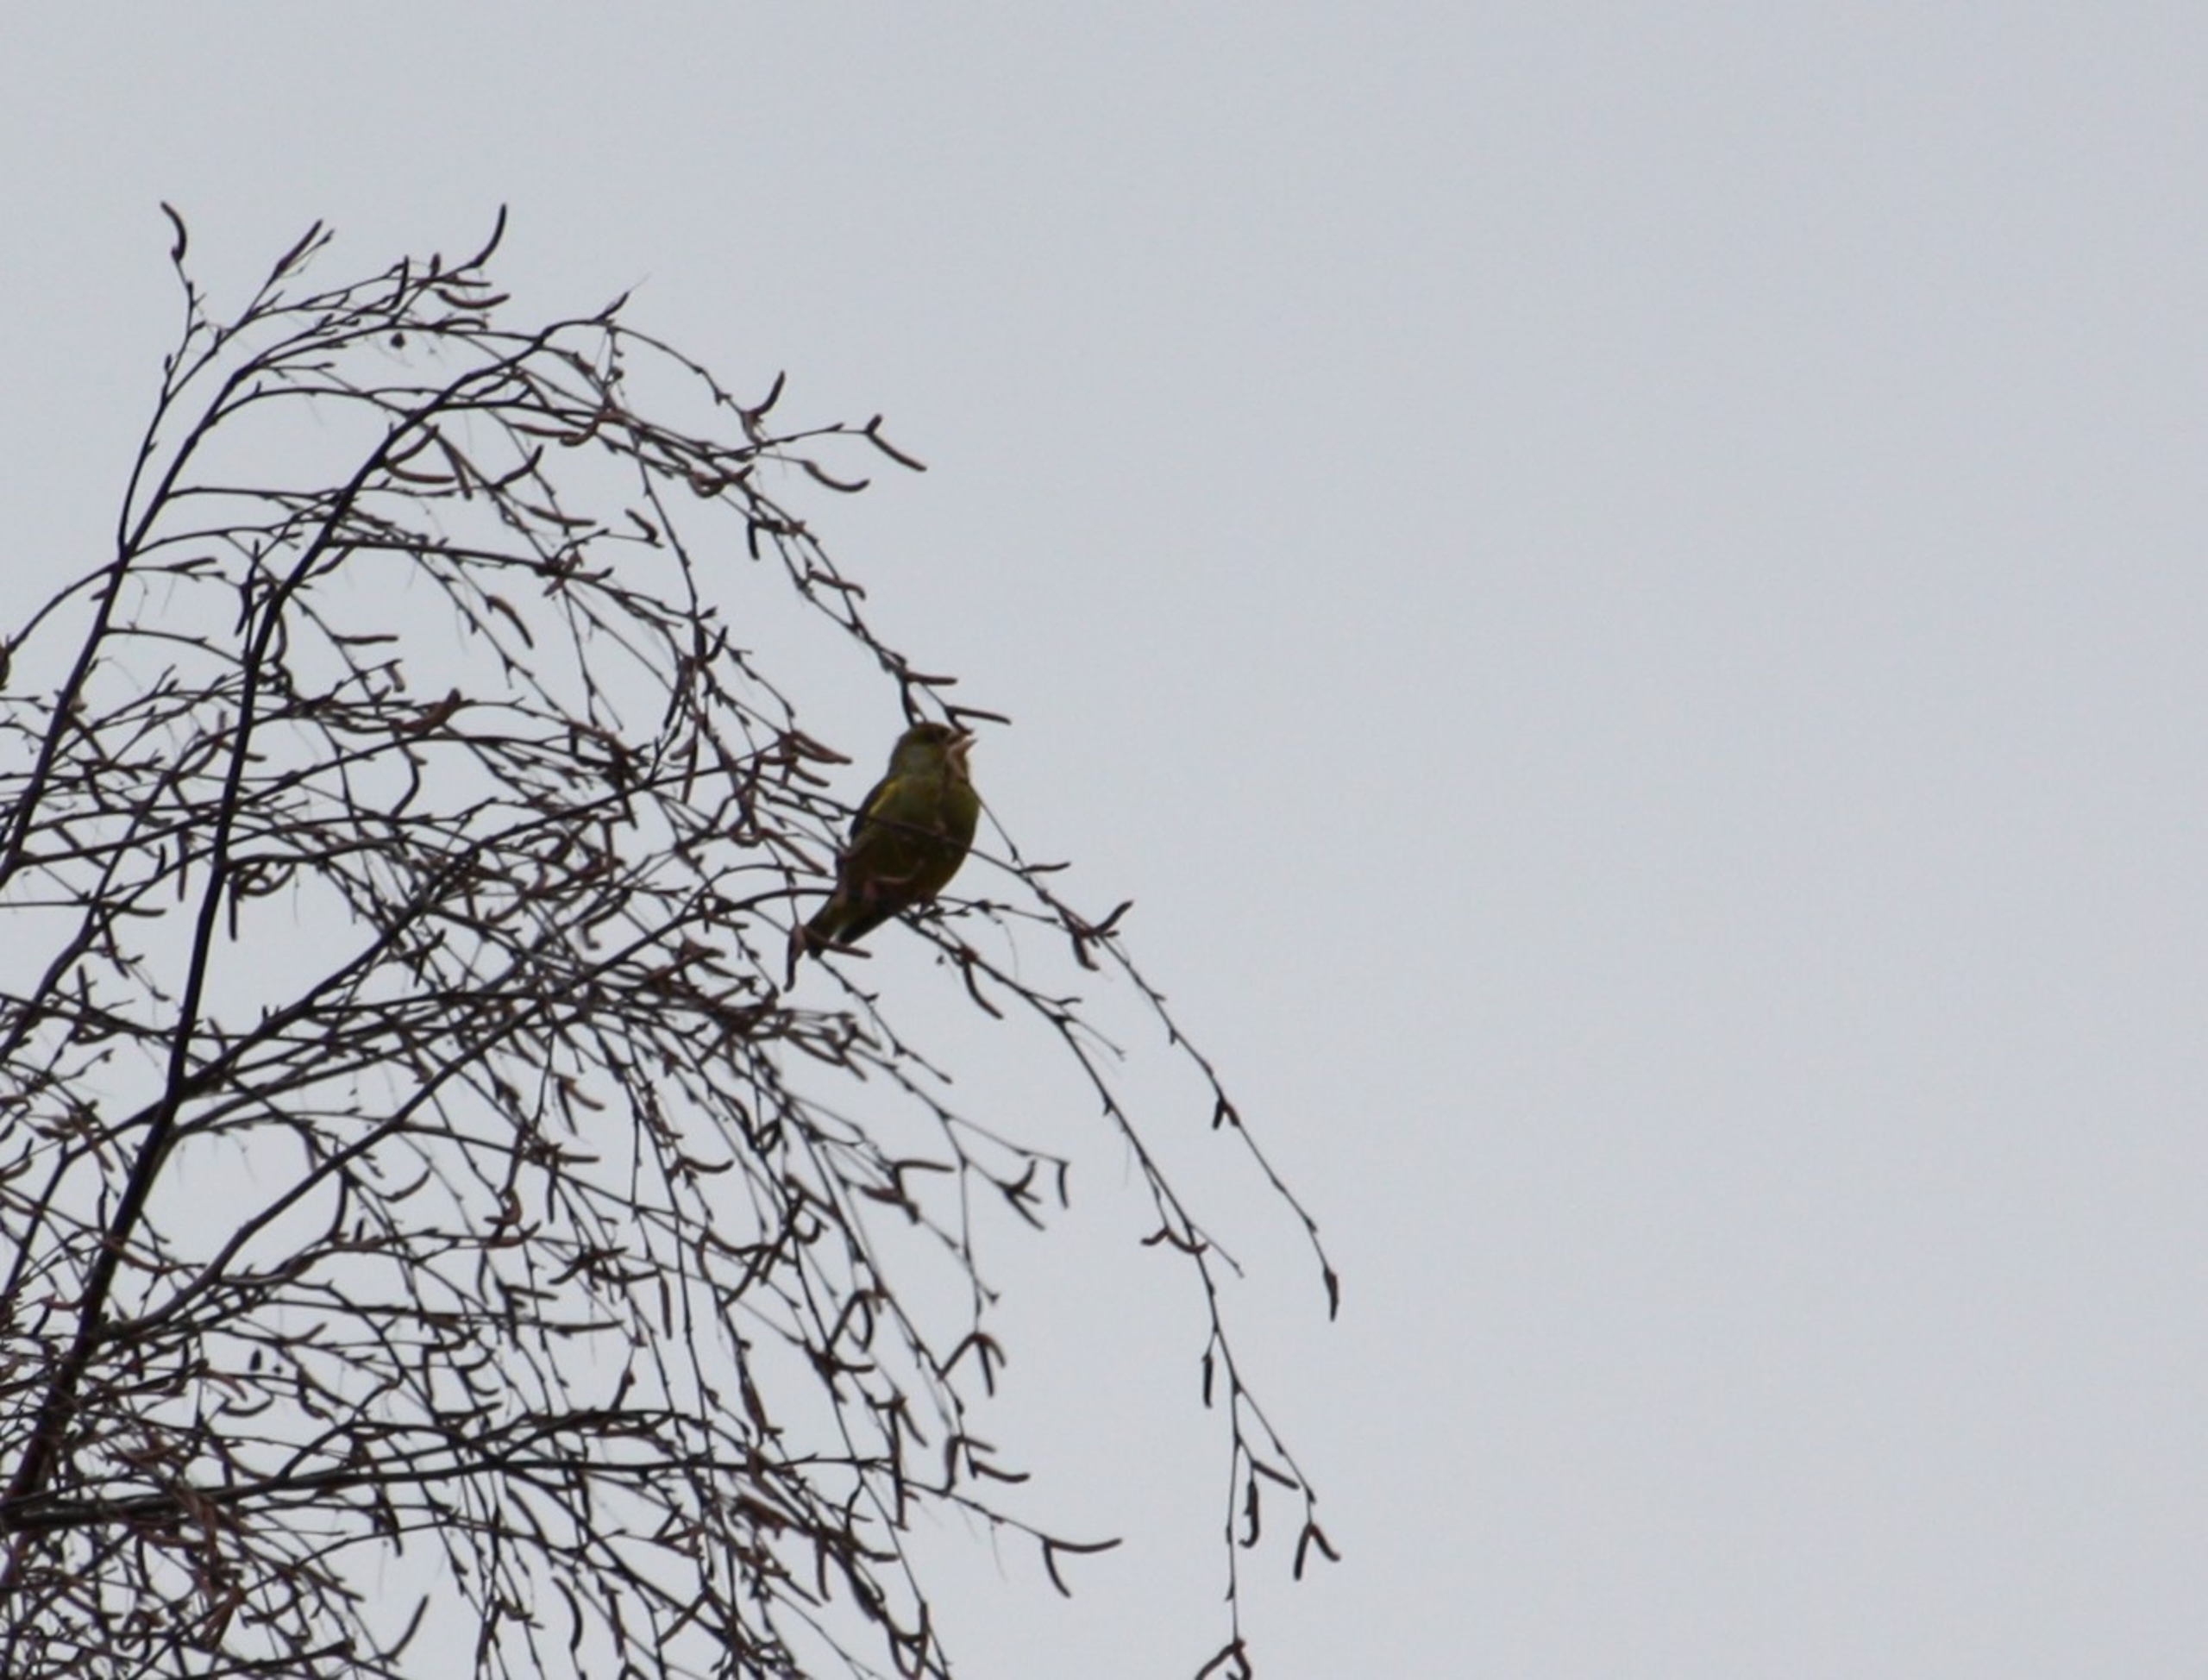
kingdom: Plantae
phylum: Tracheophyta
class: Liliopsida
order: Poales
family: Poaceae
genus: Chloris
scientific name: Chloris chloris
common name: Grønirisk
